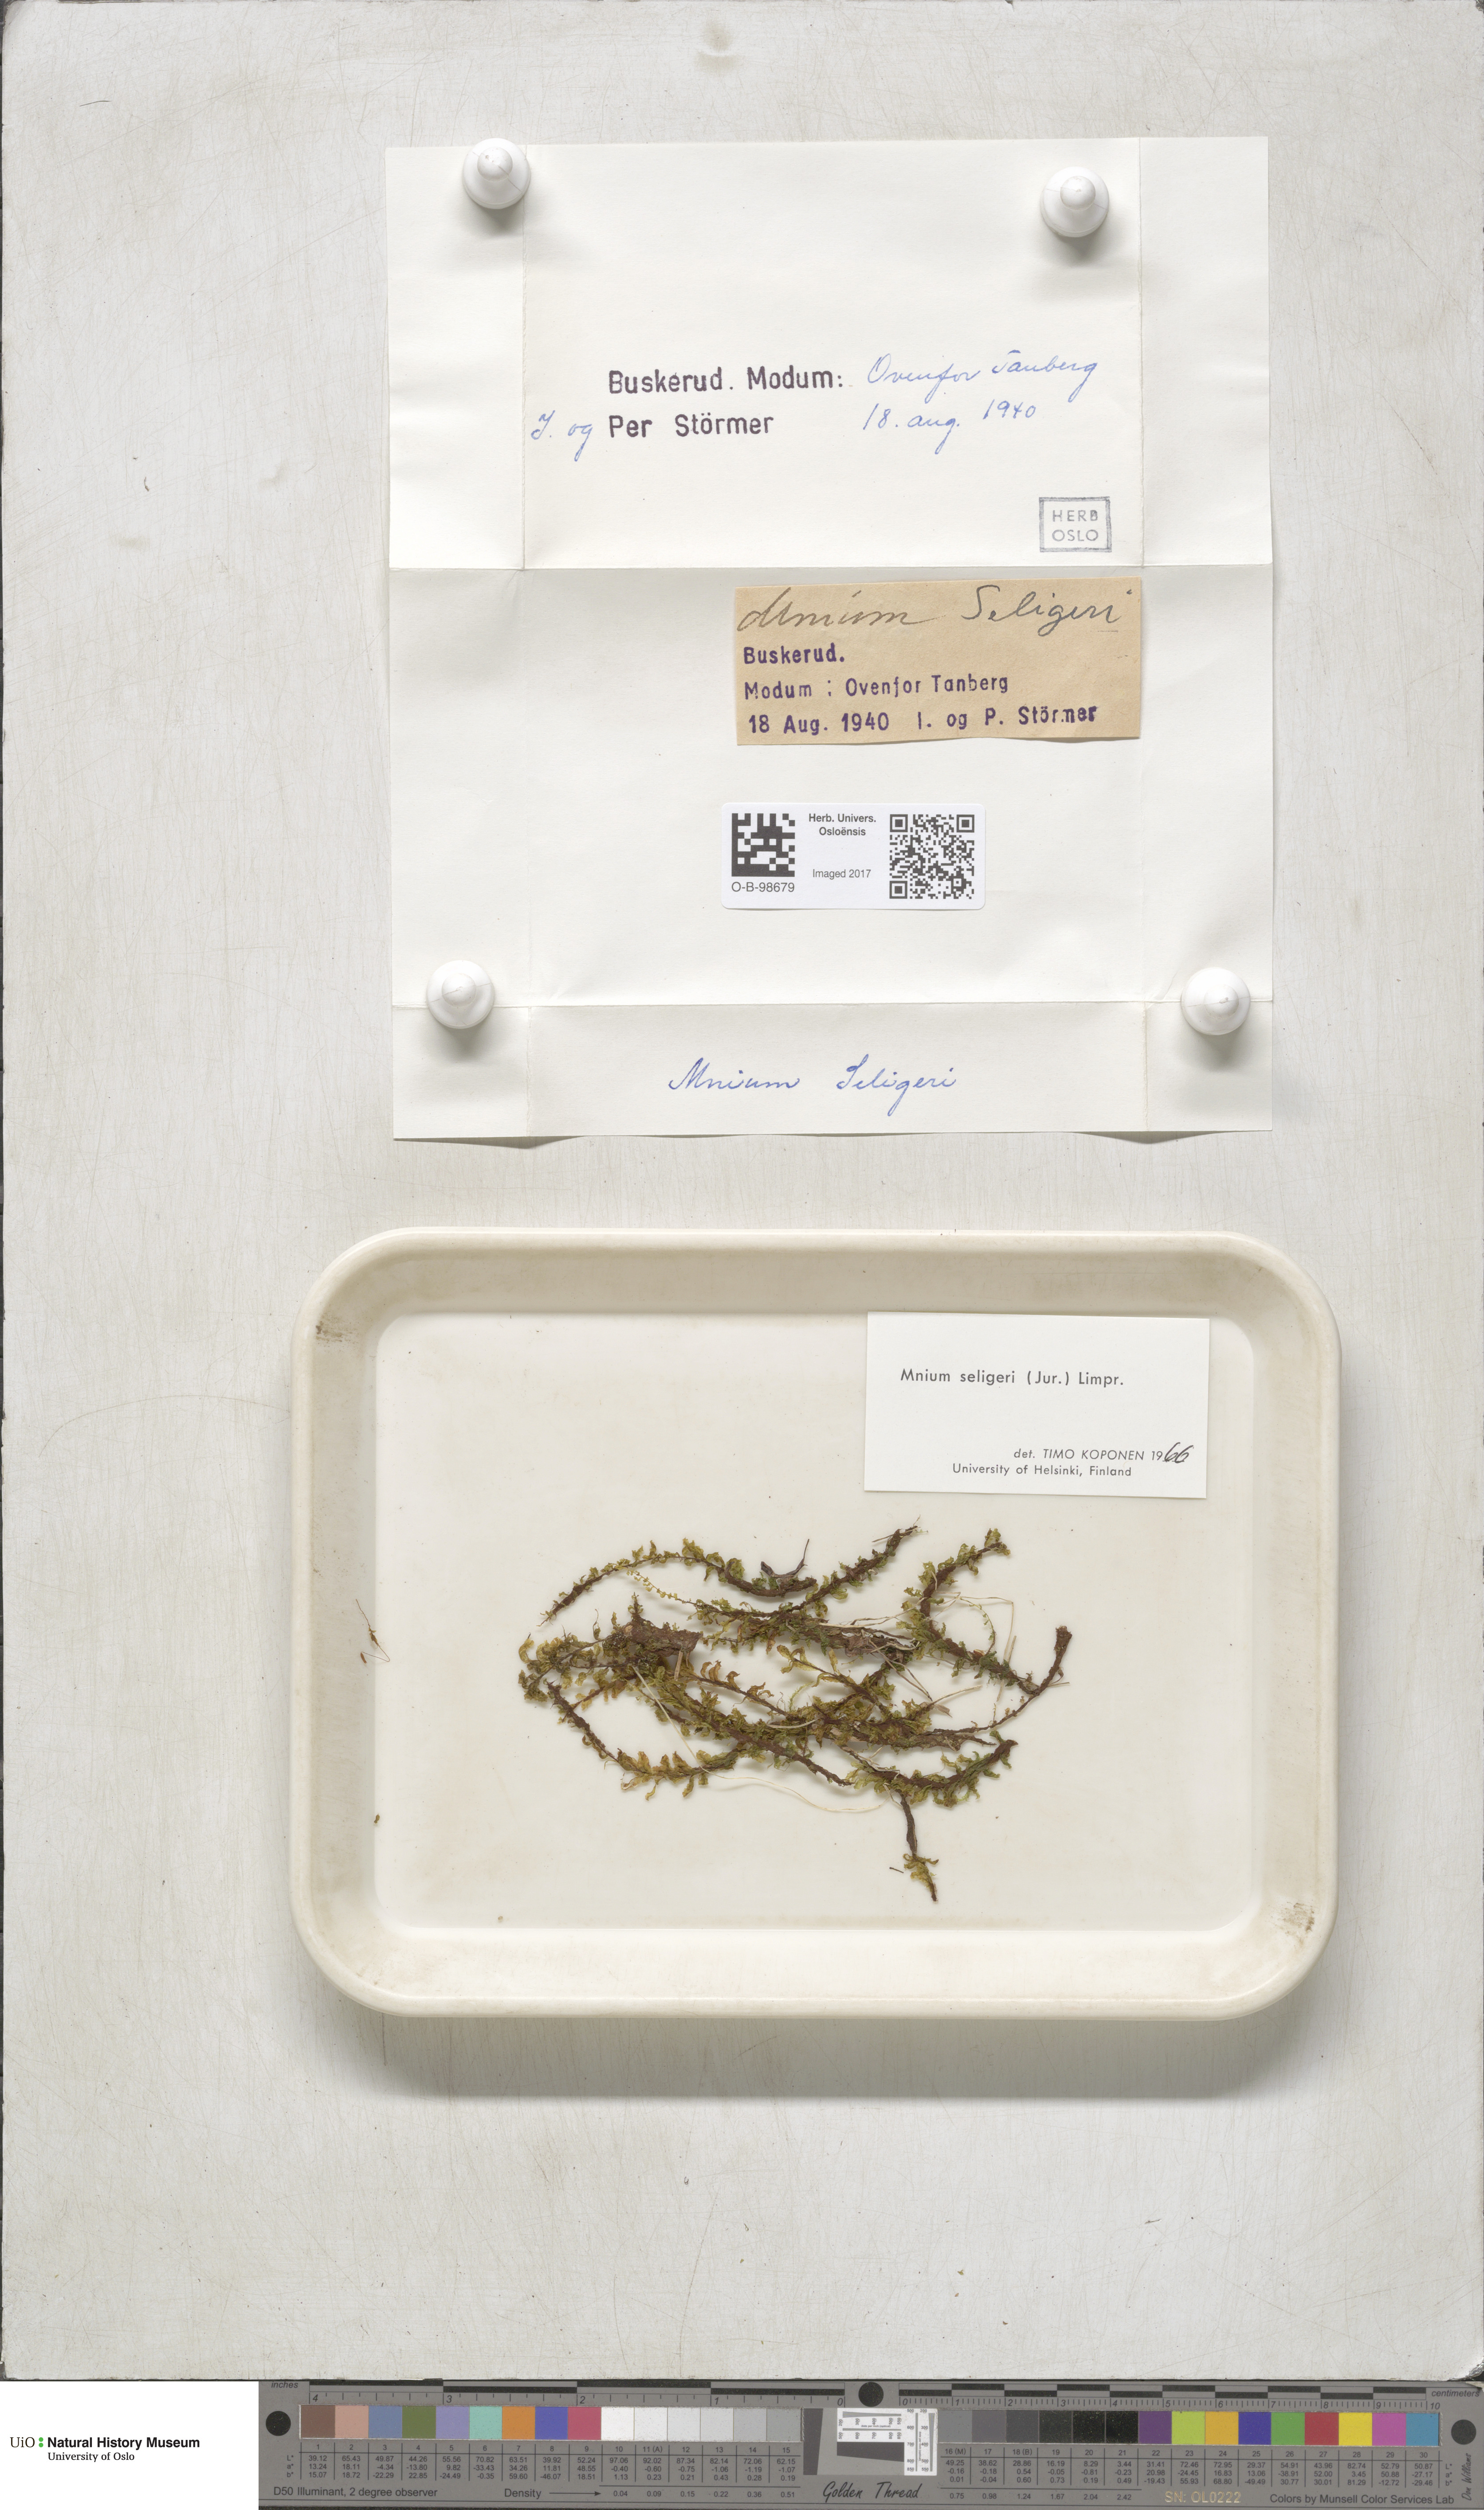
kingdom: Plantae
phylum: Bryophyta
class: Bryopsida
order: Bryales
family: Mniaceae
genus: Plagiomnium
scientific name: Plagiomnium elatum
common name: Tall thyme-moss
